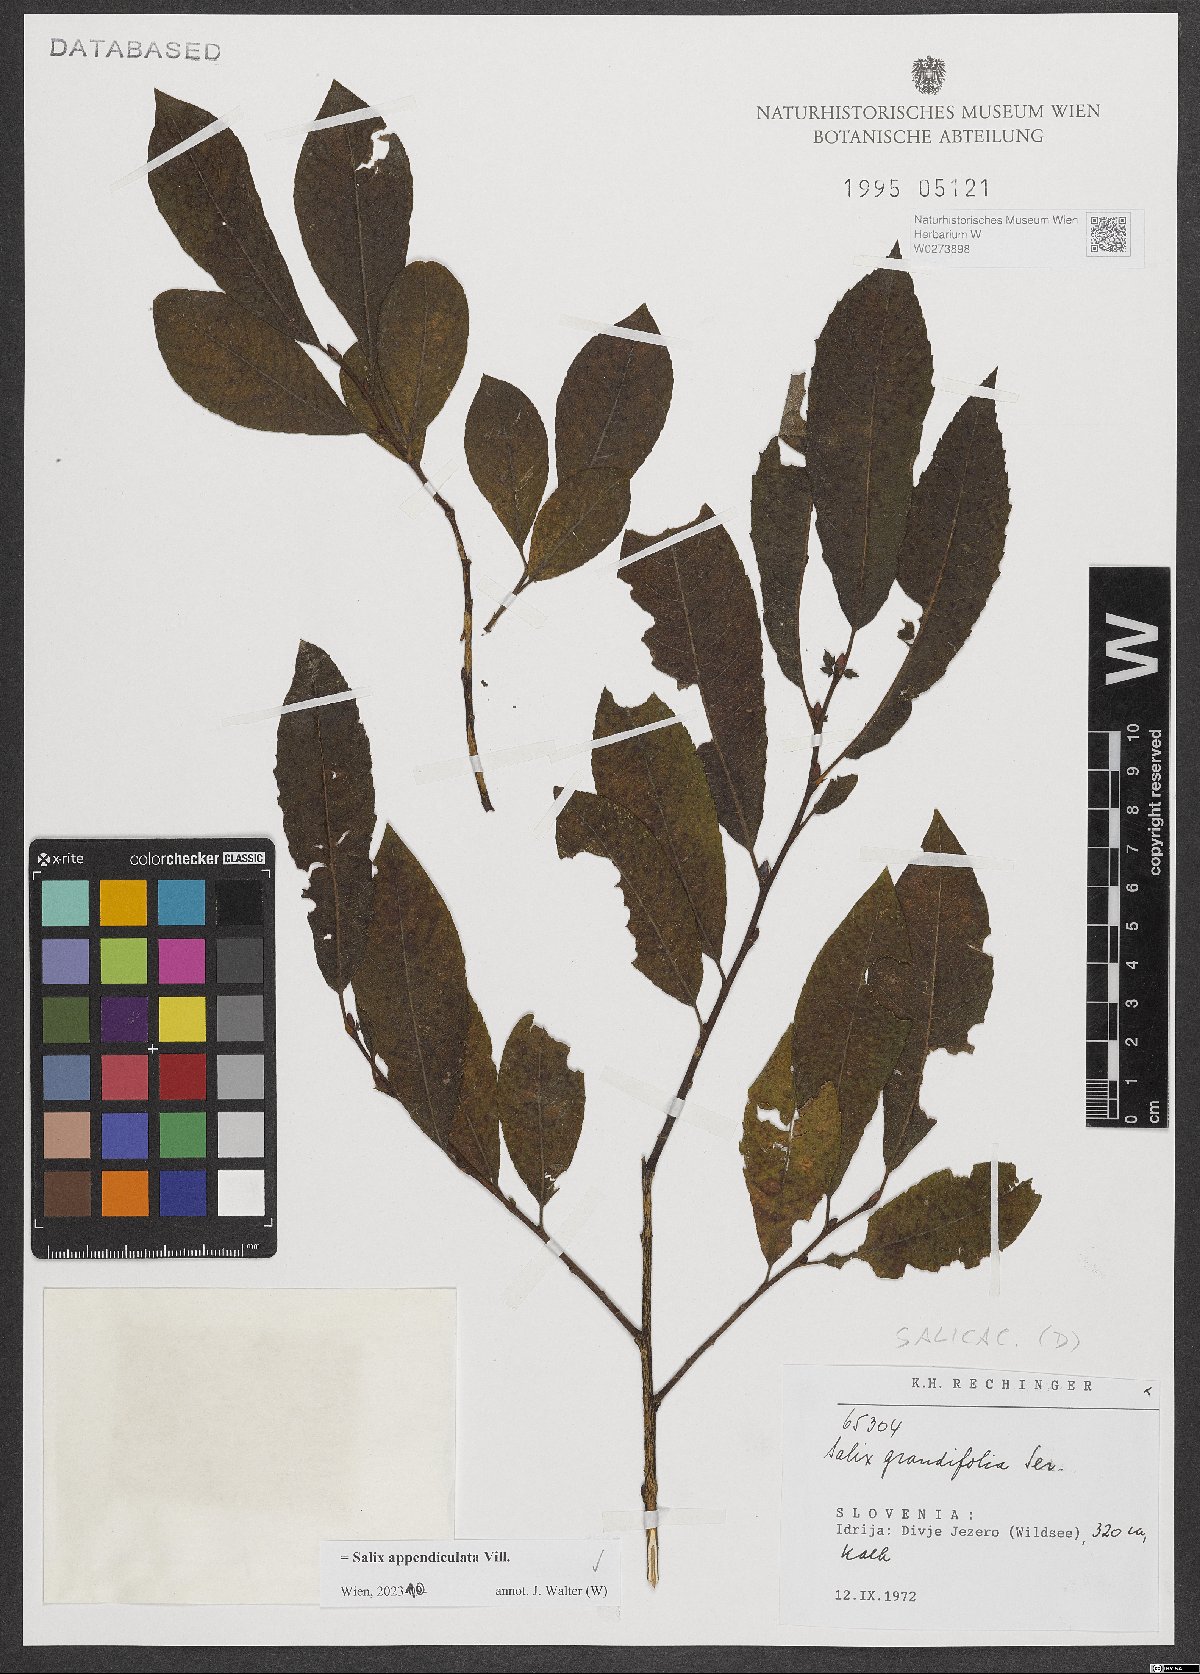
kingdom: Plantae
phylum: Tracheophyta
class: Magnoliopsida
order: Malpighiales
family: Salicaceae
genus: Salix
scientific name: Salix appendiculata
